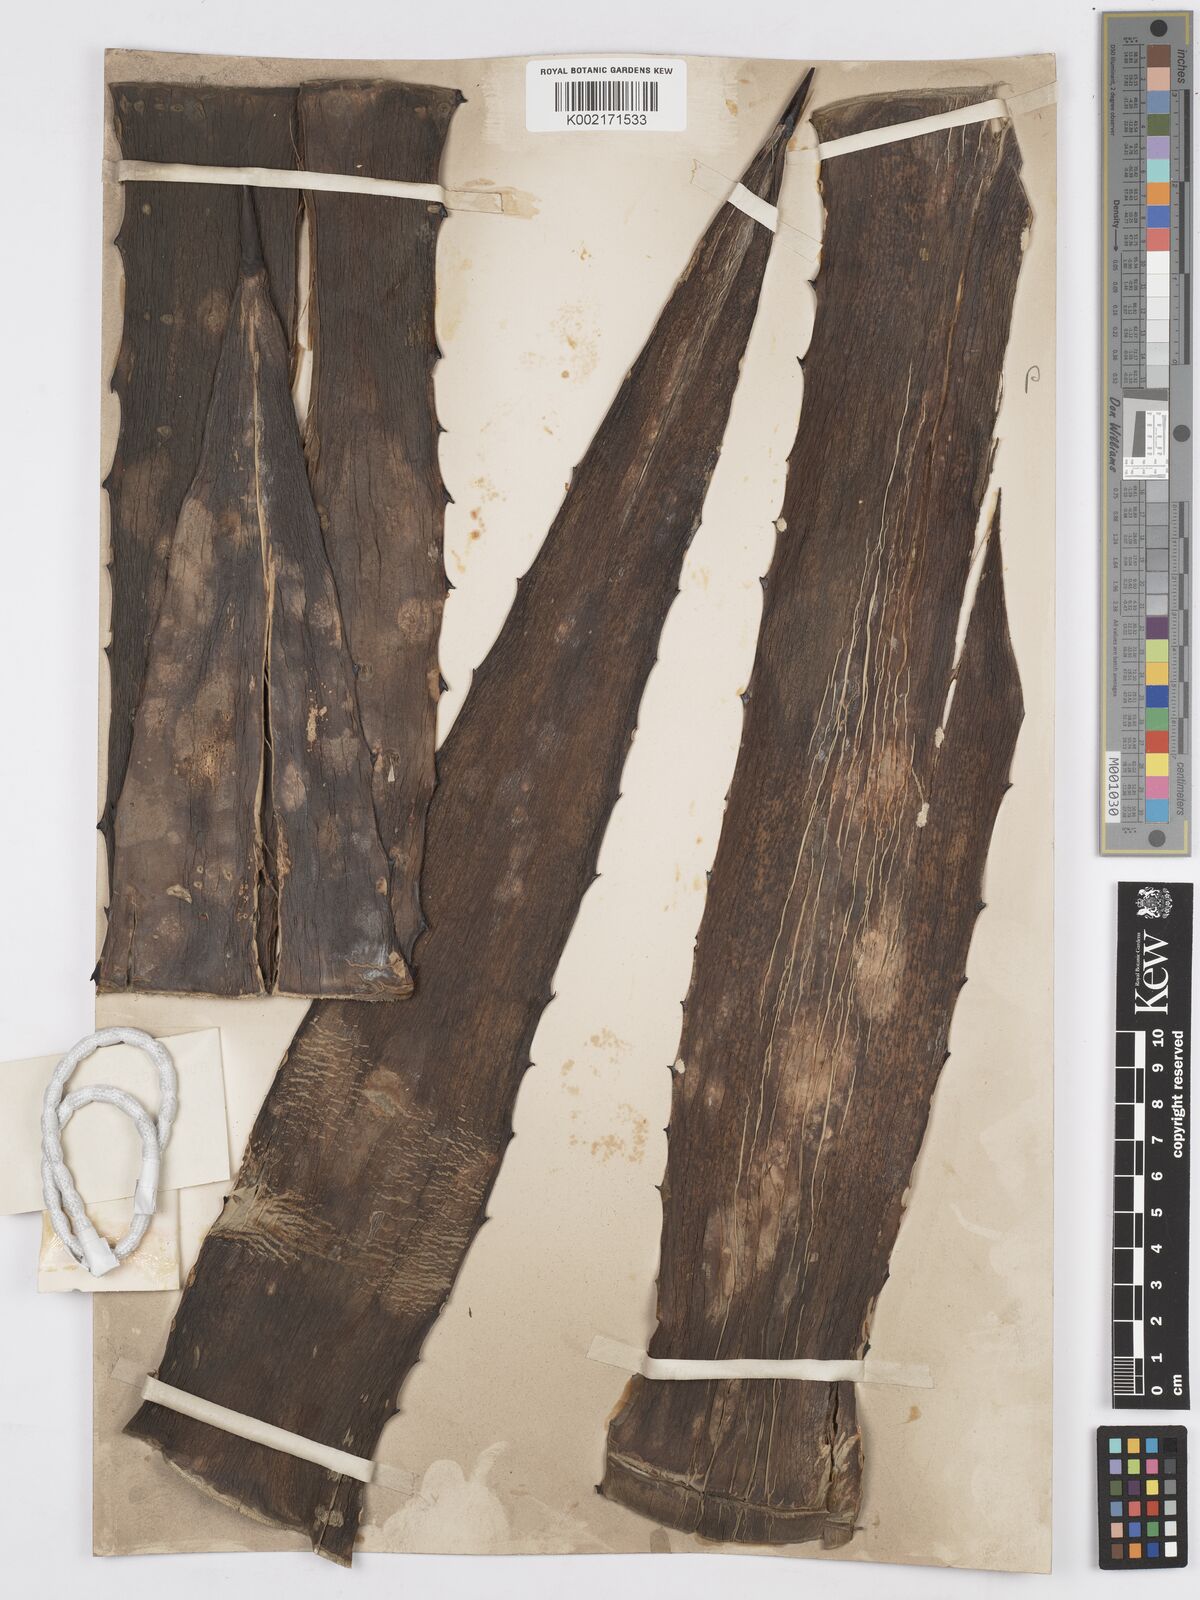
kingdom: Plantae
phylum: Tracheophyta
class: Liliopsida
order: Asparagales
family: Asparagaceae
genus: Agave
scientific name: Agave fourcroydes
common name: Henequen
